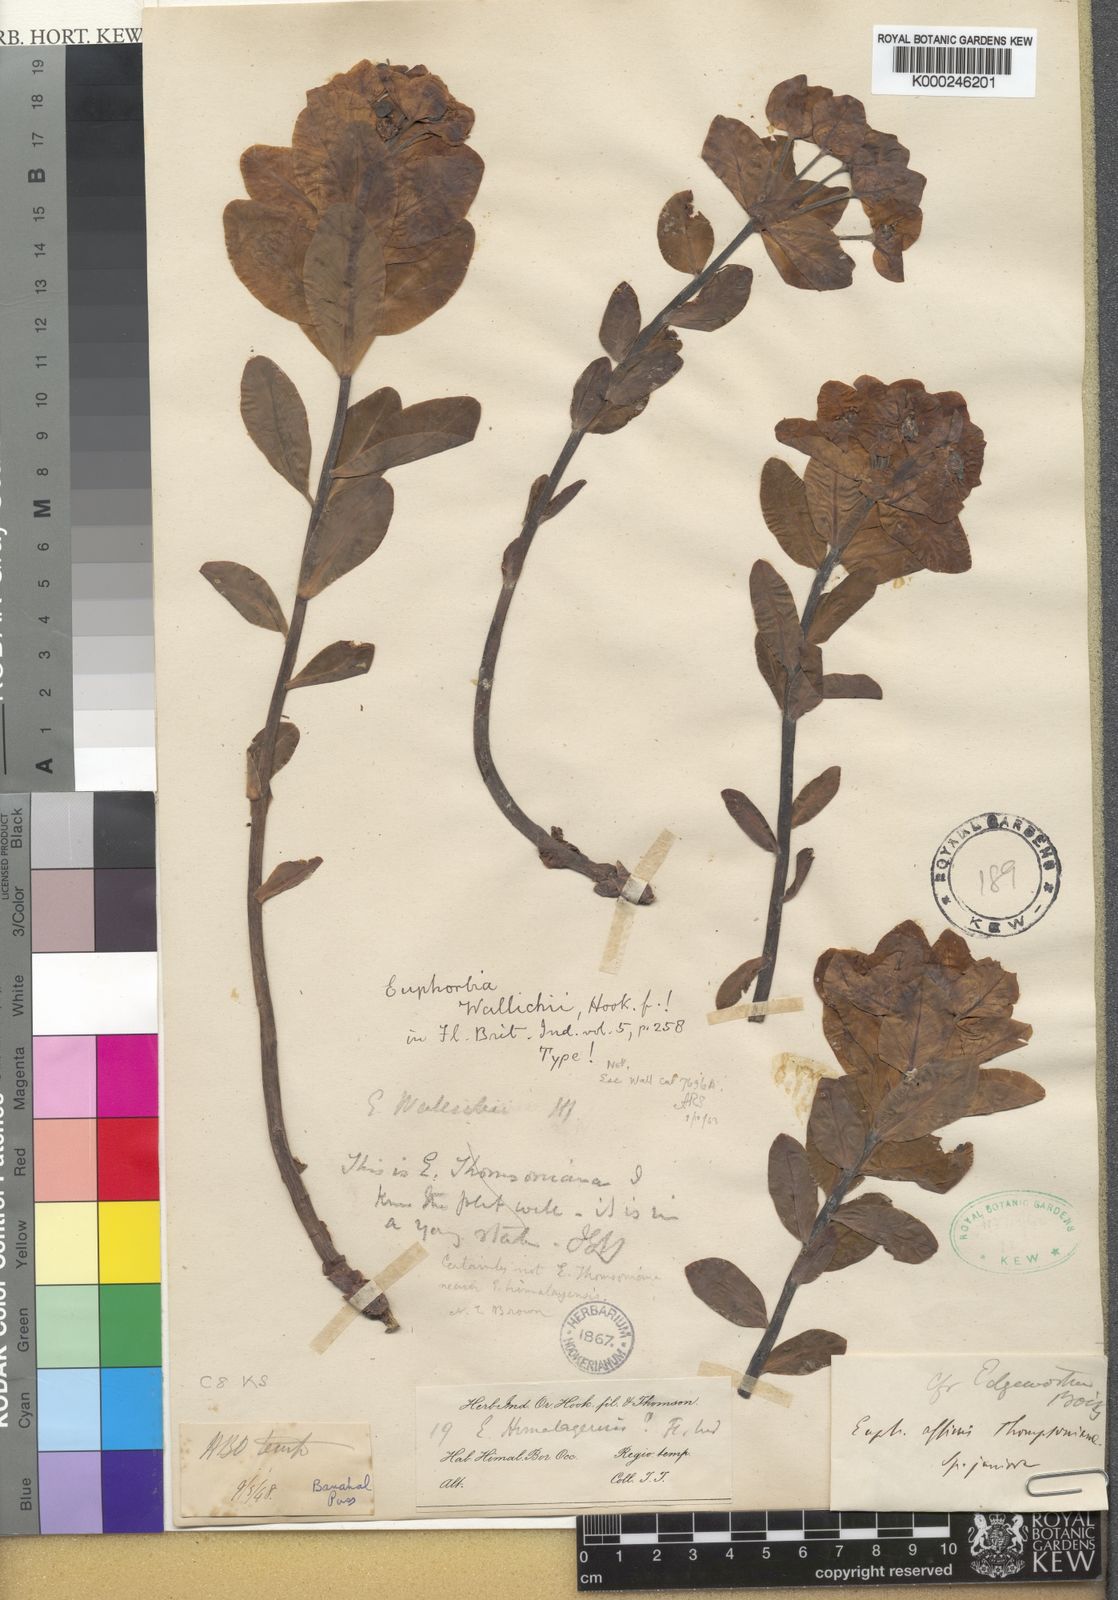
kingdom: Plantae
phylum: Tracheophyta
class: Magnoliopsida
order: Malpighiales
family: Euphorbiaceae
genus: Euphorbia
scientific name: Euphorbia wallichii
